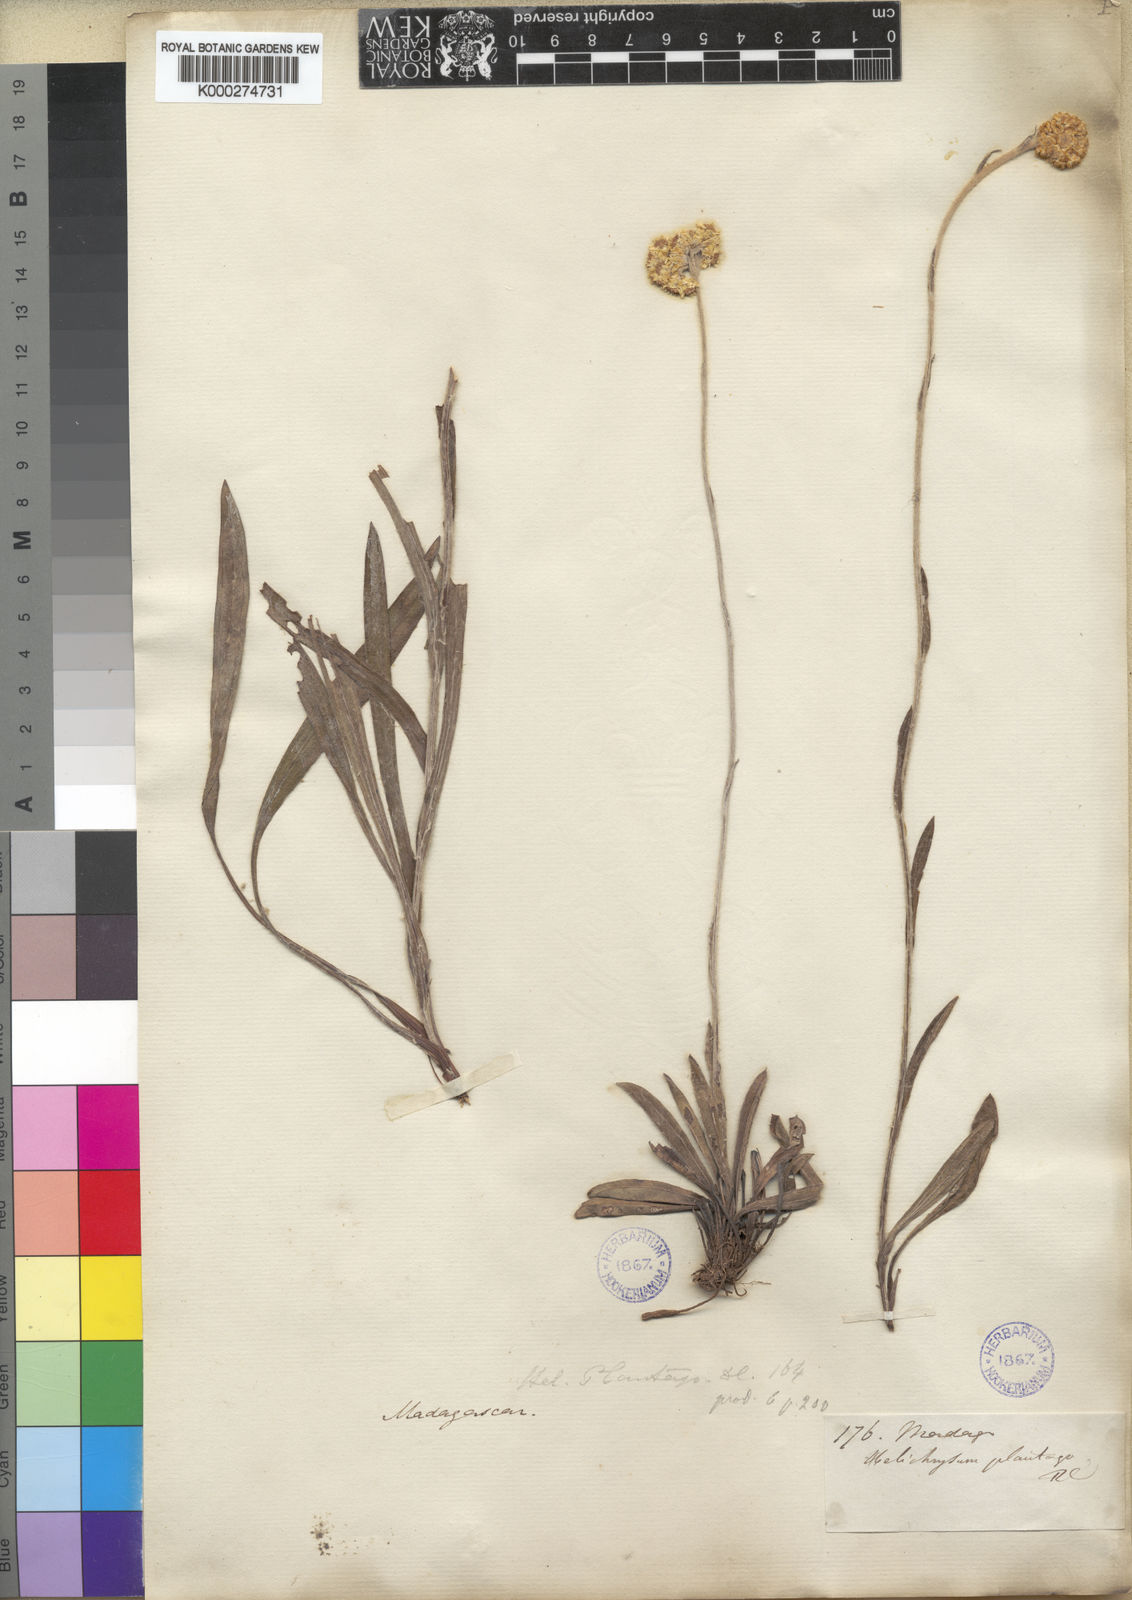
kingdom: Plantae
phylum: Tracheophyta
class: Magnoliopsida
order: Asterales
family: Asteraceae
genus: Helichrysum
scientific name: Helichrysum plantago
